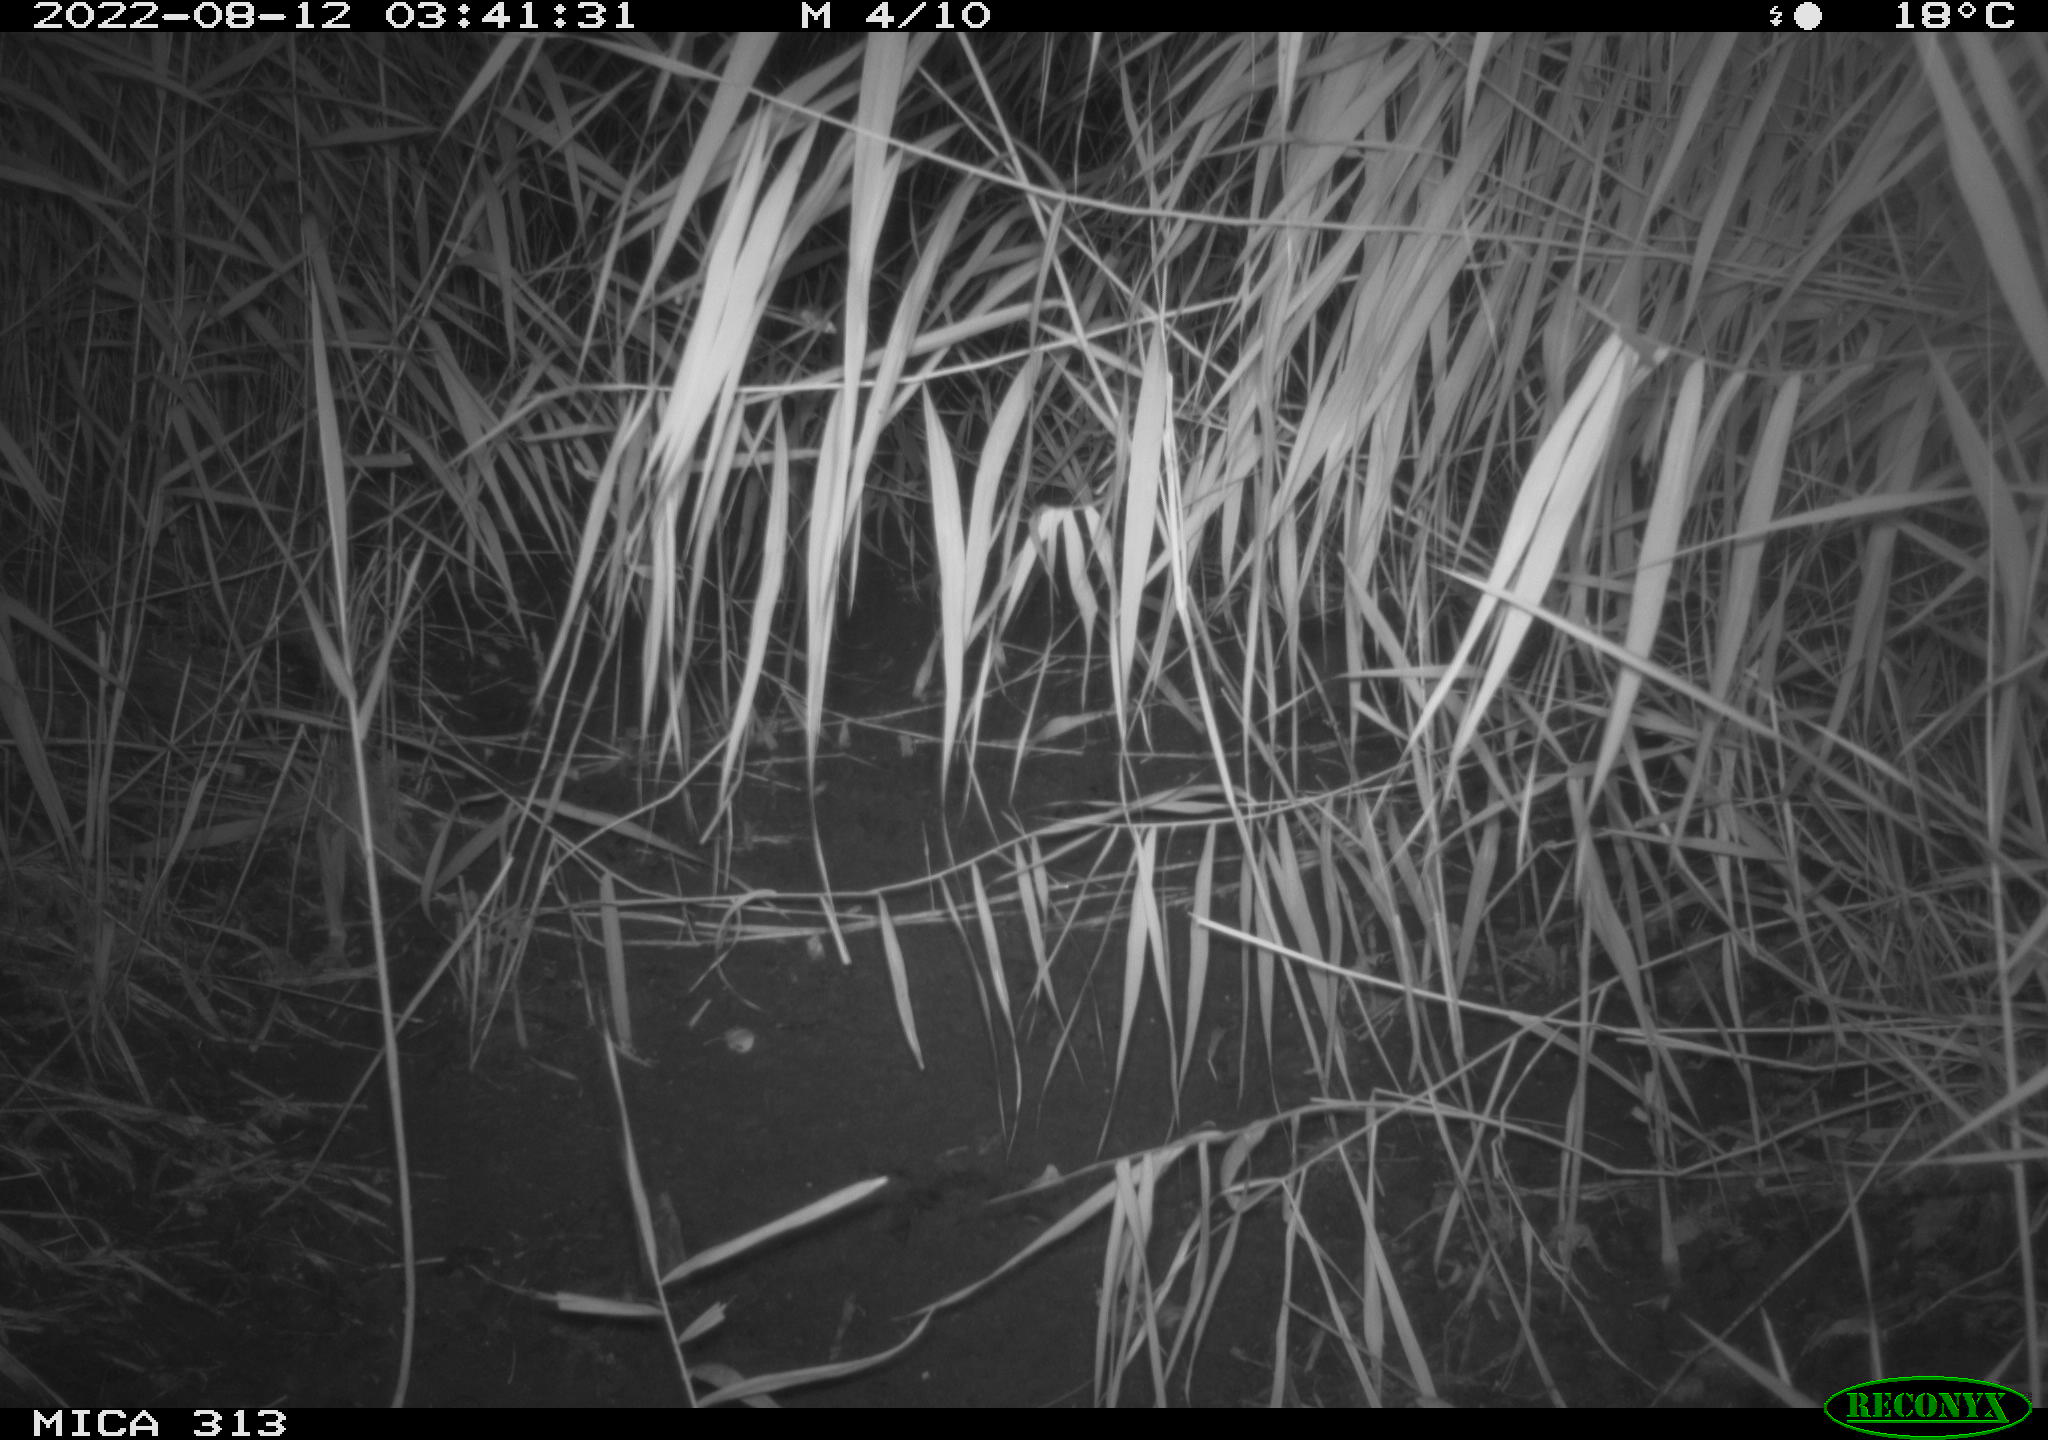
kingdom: Animalia
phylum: Chordata
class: Mammalia
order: Rodentia
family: Muridae
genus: Rattus
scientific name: Rattus norvegicus
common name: Brown rat
